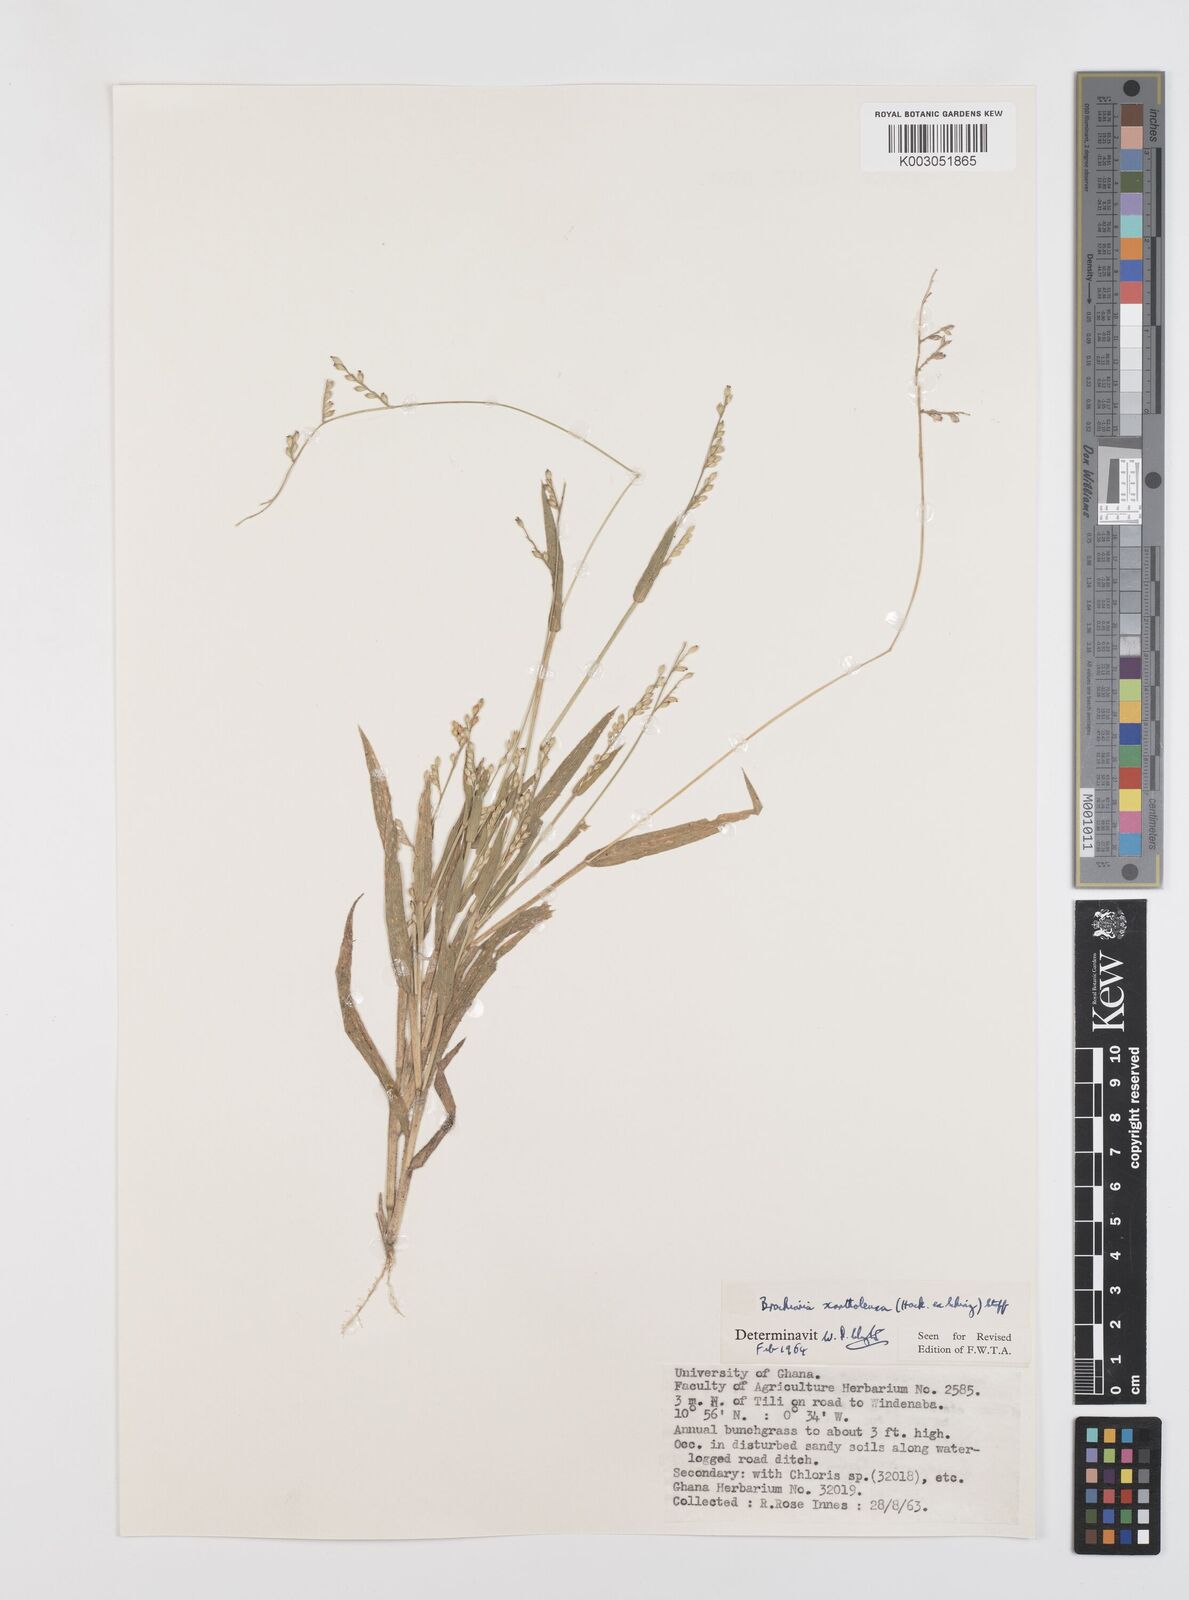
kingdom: Plantae
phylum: Tracheophyta
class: Liliopsida
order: Poales
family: Poaceae
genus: Urochloa
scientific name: Urochloa xantholeuca
